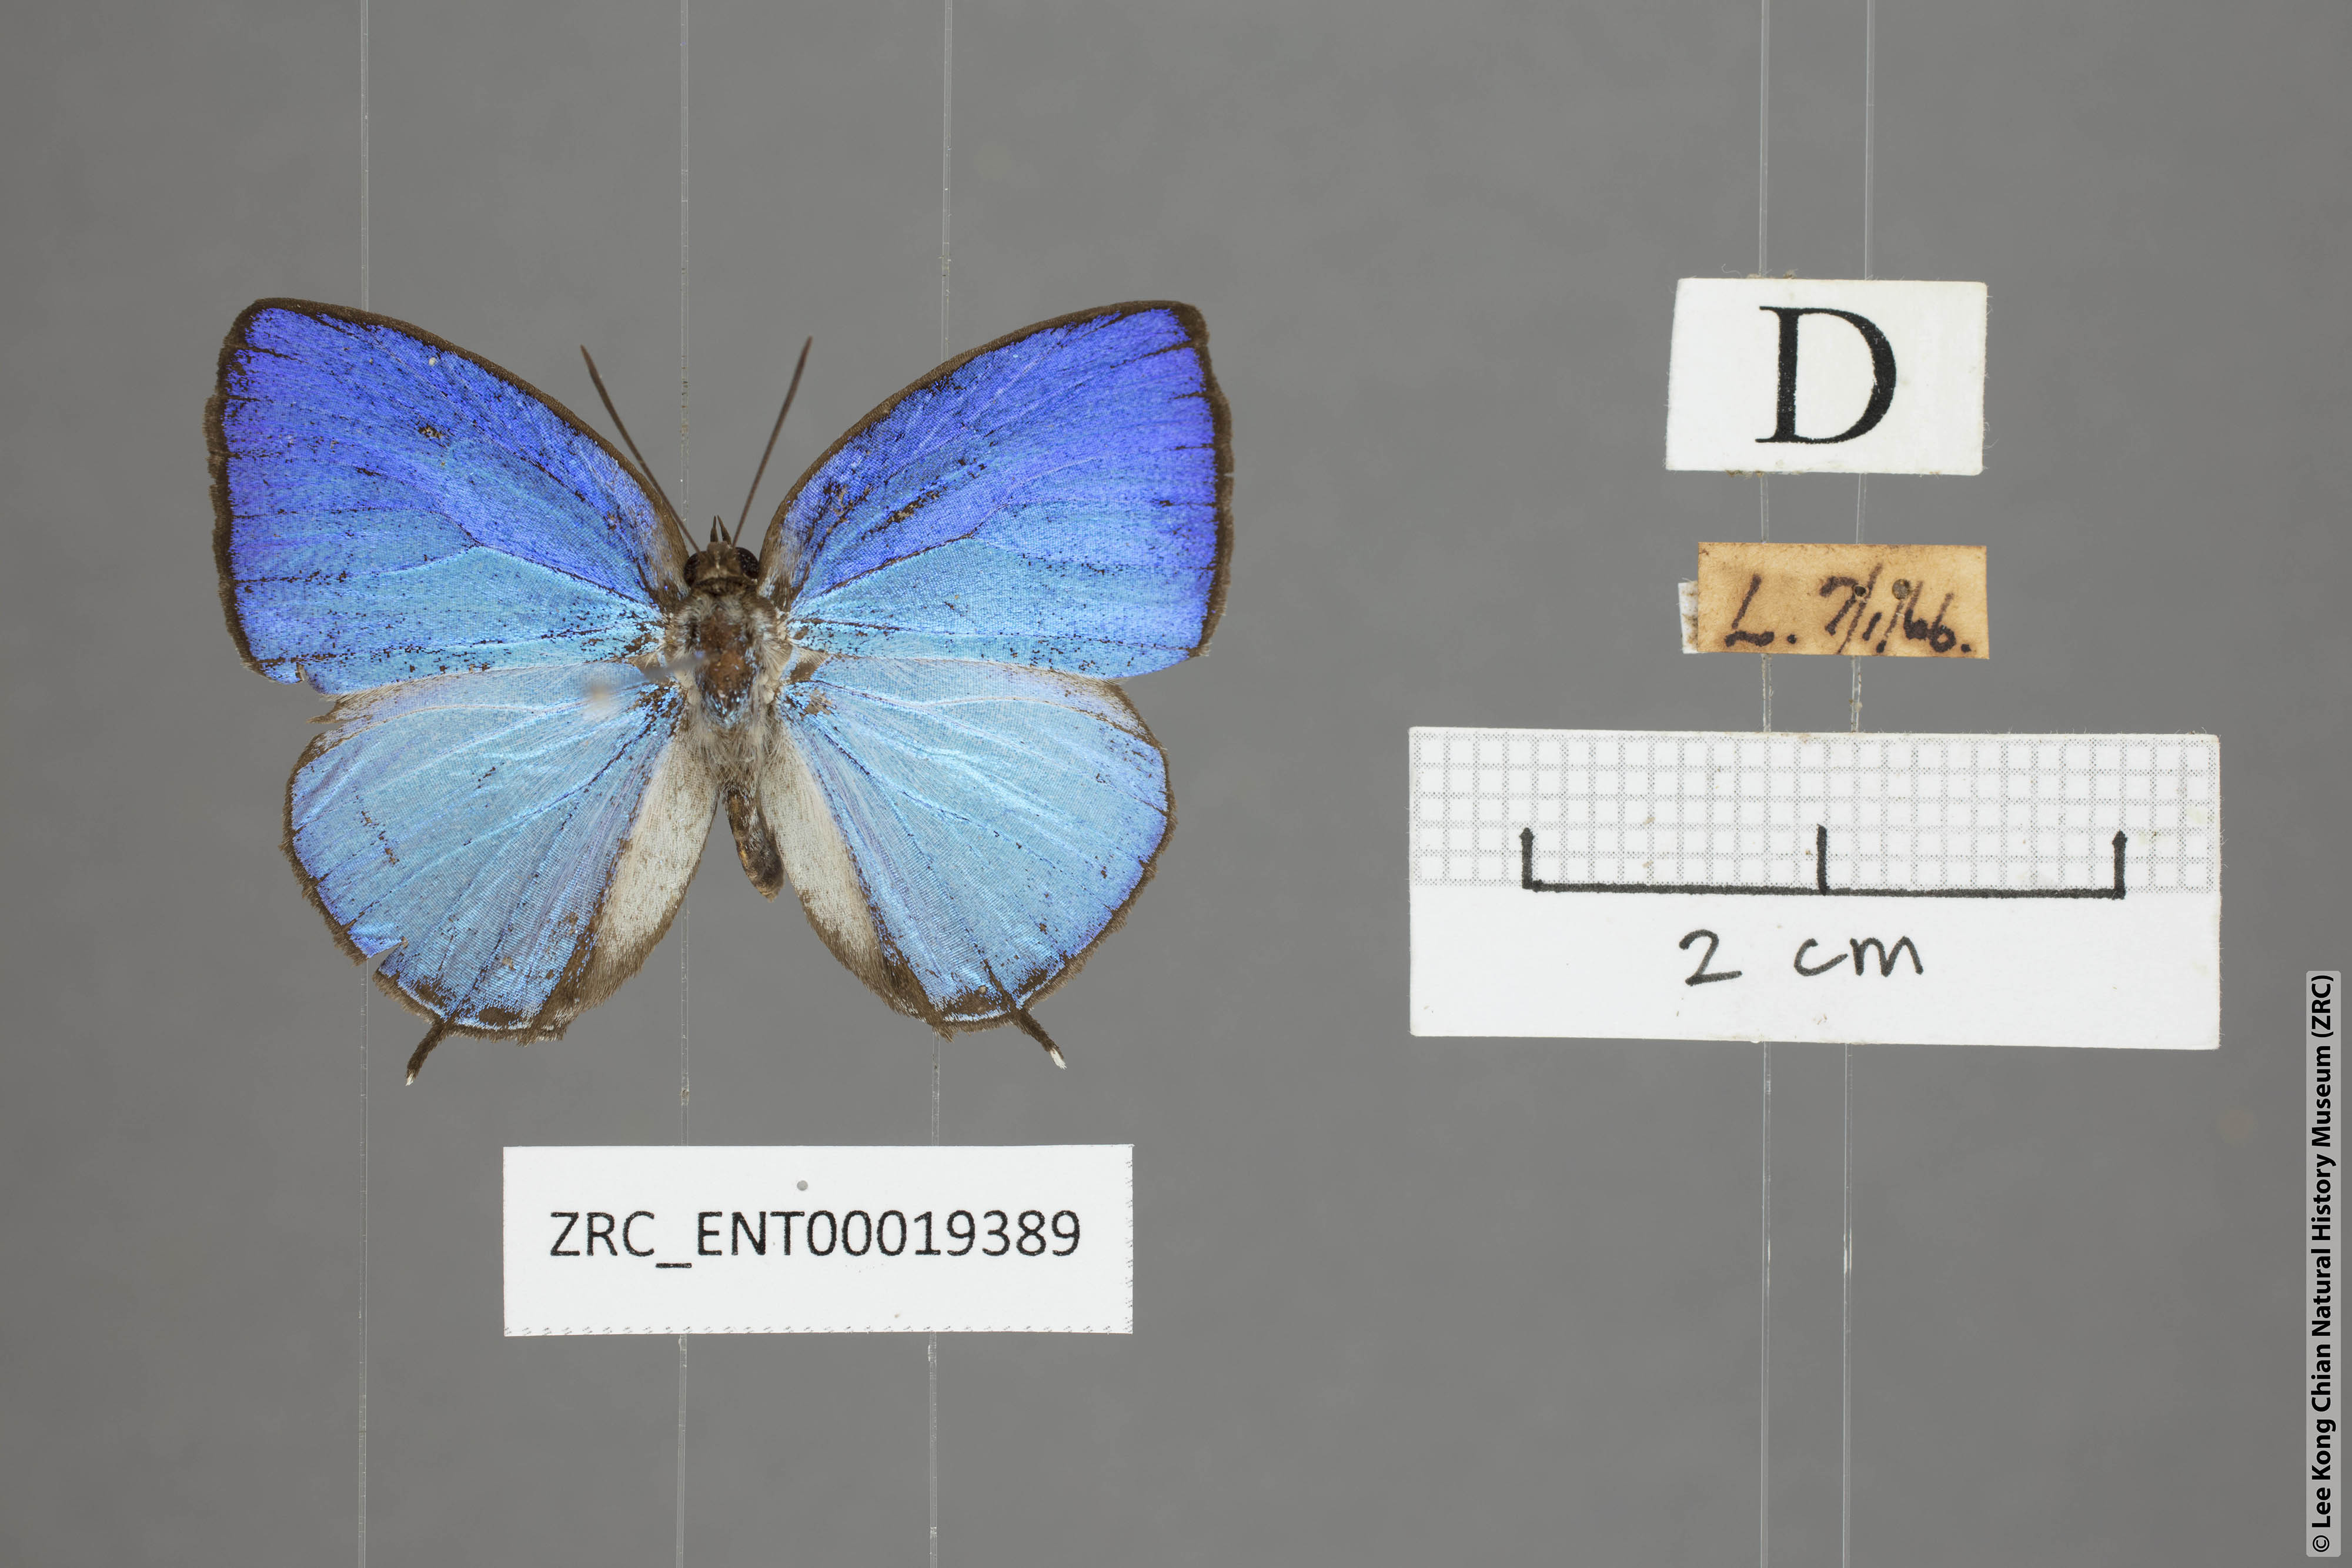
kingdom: Animalia
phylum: Arthropoda
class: Insecta
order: Lepidoptera
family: Lycaenidae
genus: Arhopala
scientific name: Arhopala democritus
